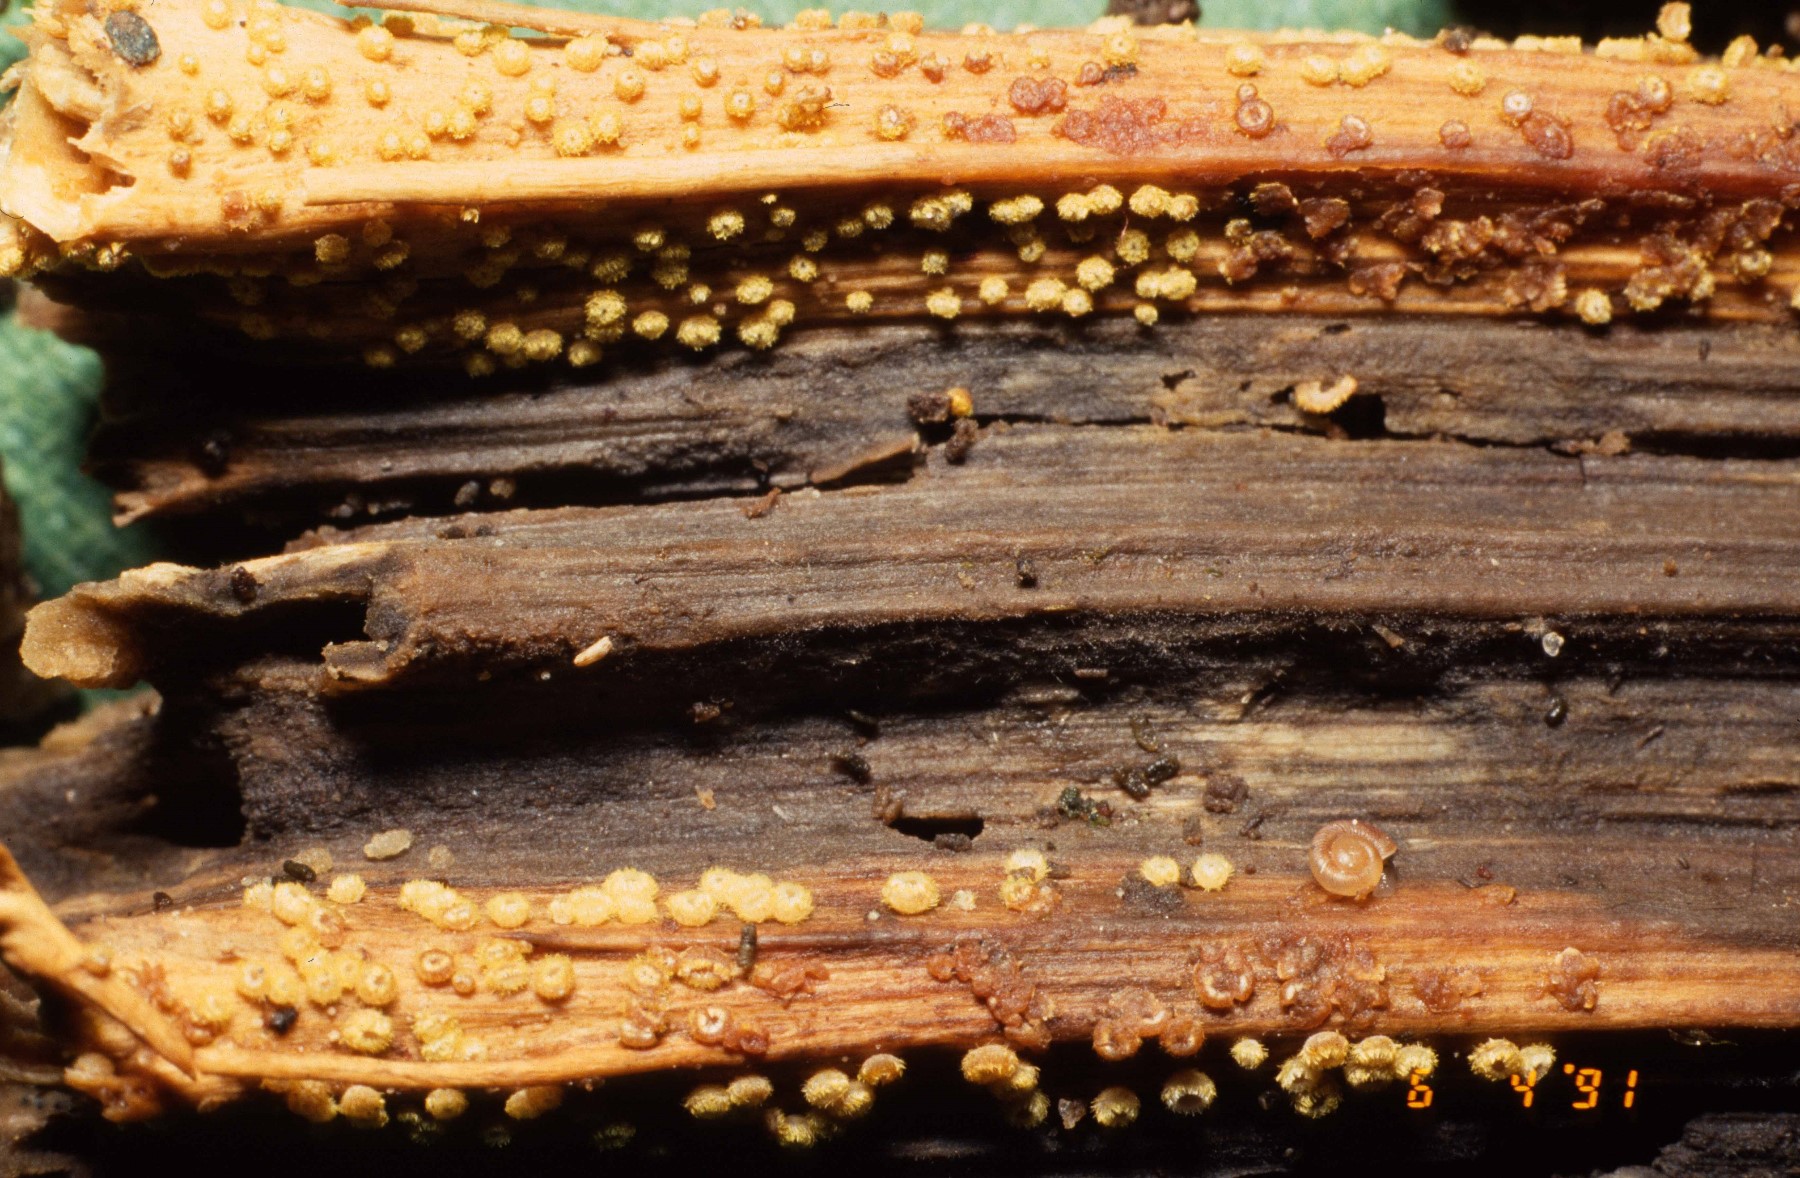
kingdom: Fungi
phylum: Ascomycota
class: Leotiomycetes
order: Helotiales
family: Lachnaceae
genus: Lachnum
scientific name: Lachnum mollissimum
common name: smuk frynseskive
